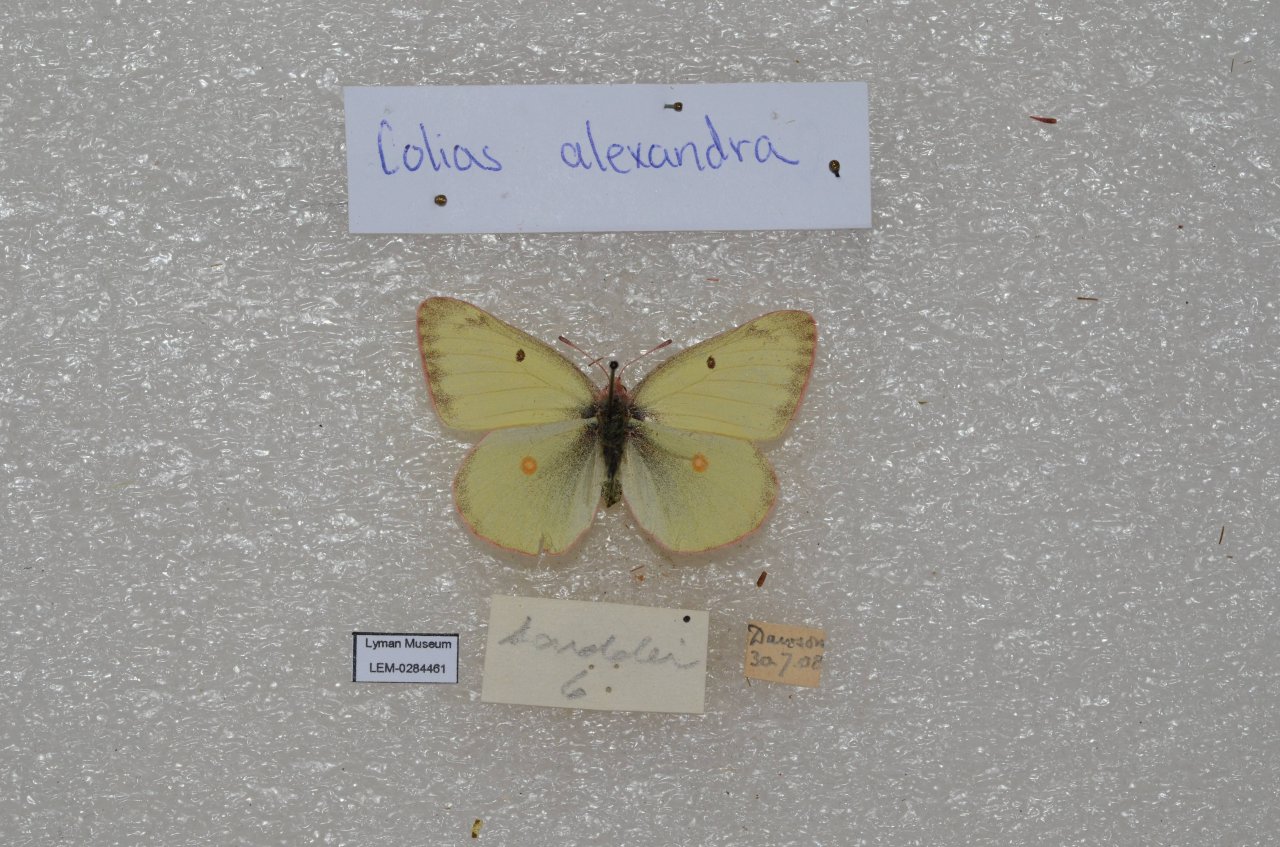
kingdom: Animalia
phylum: Arthropoda
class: Insecta
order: Lepidoptera
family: Pieridae
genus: Colias
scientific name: Colias
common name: Clouded Yellows
